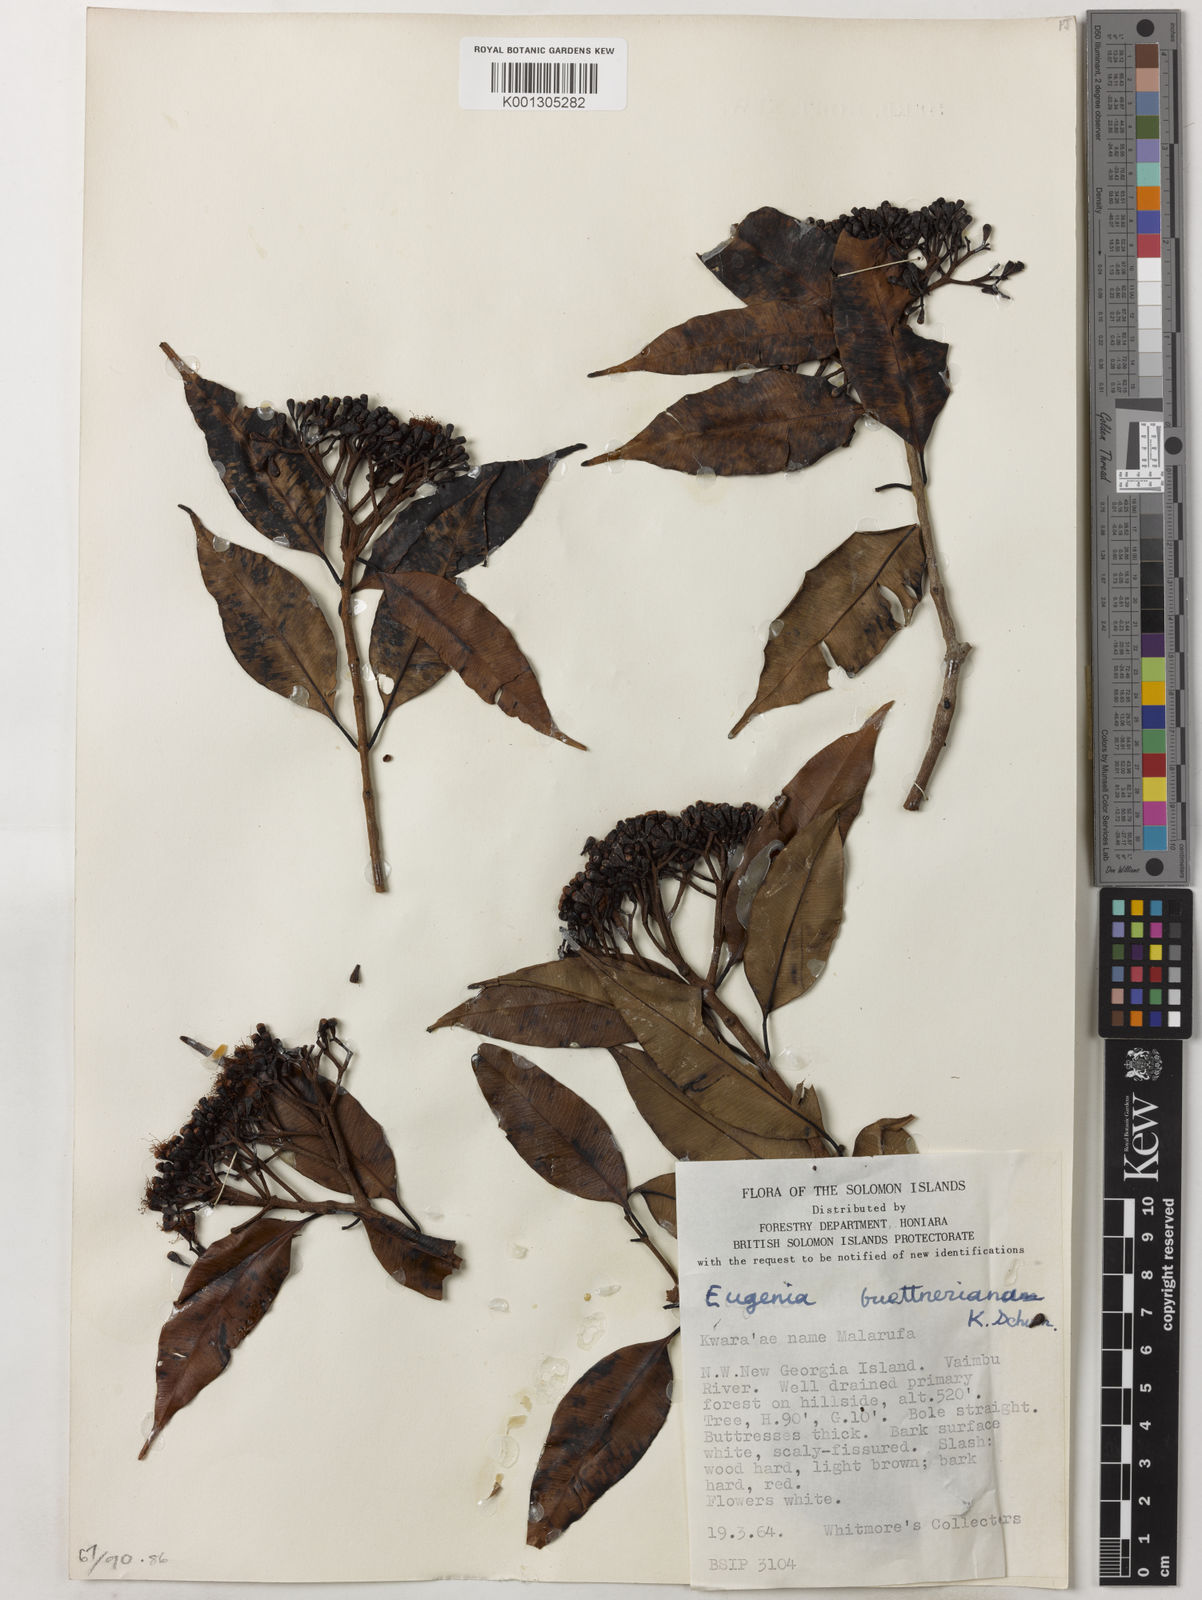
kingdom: Plantae
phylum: Tracheophyta
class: Magnoliopsida
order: Myrtales
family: Myrtaceae
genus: Syzygium
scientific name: Syzygium buettnerianum
